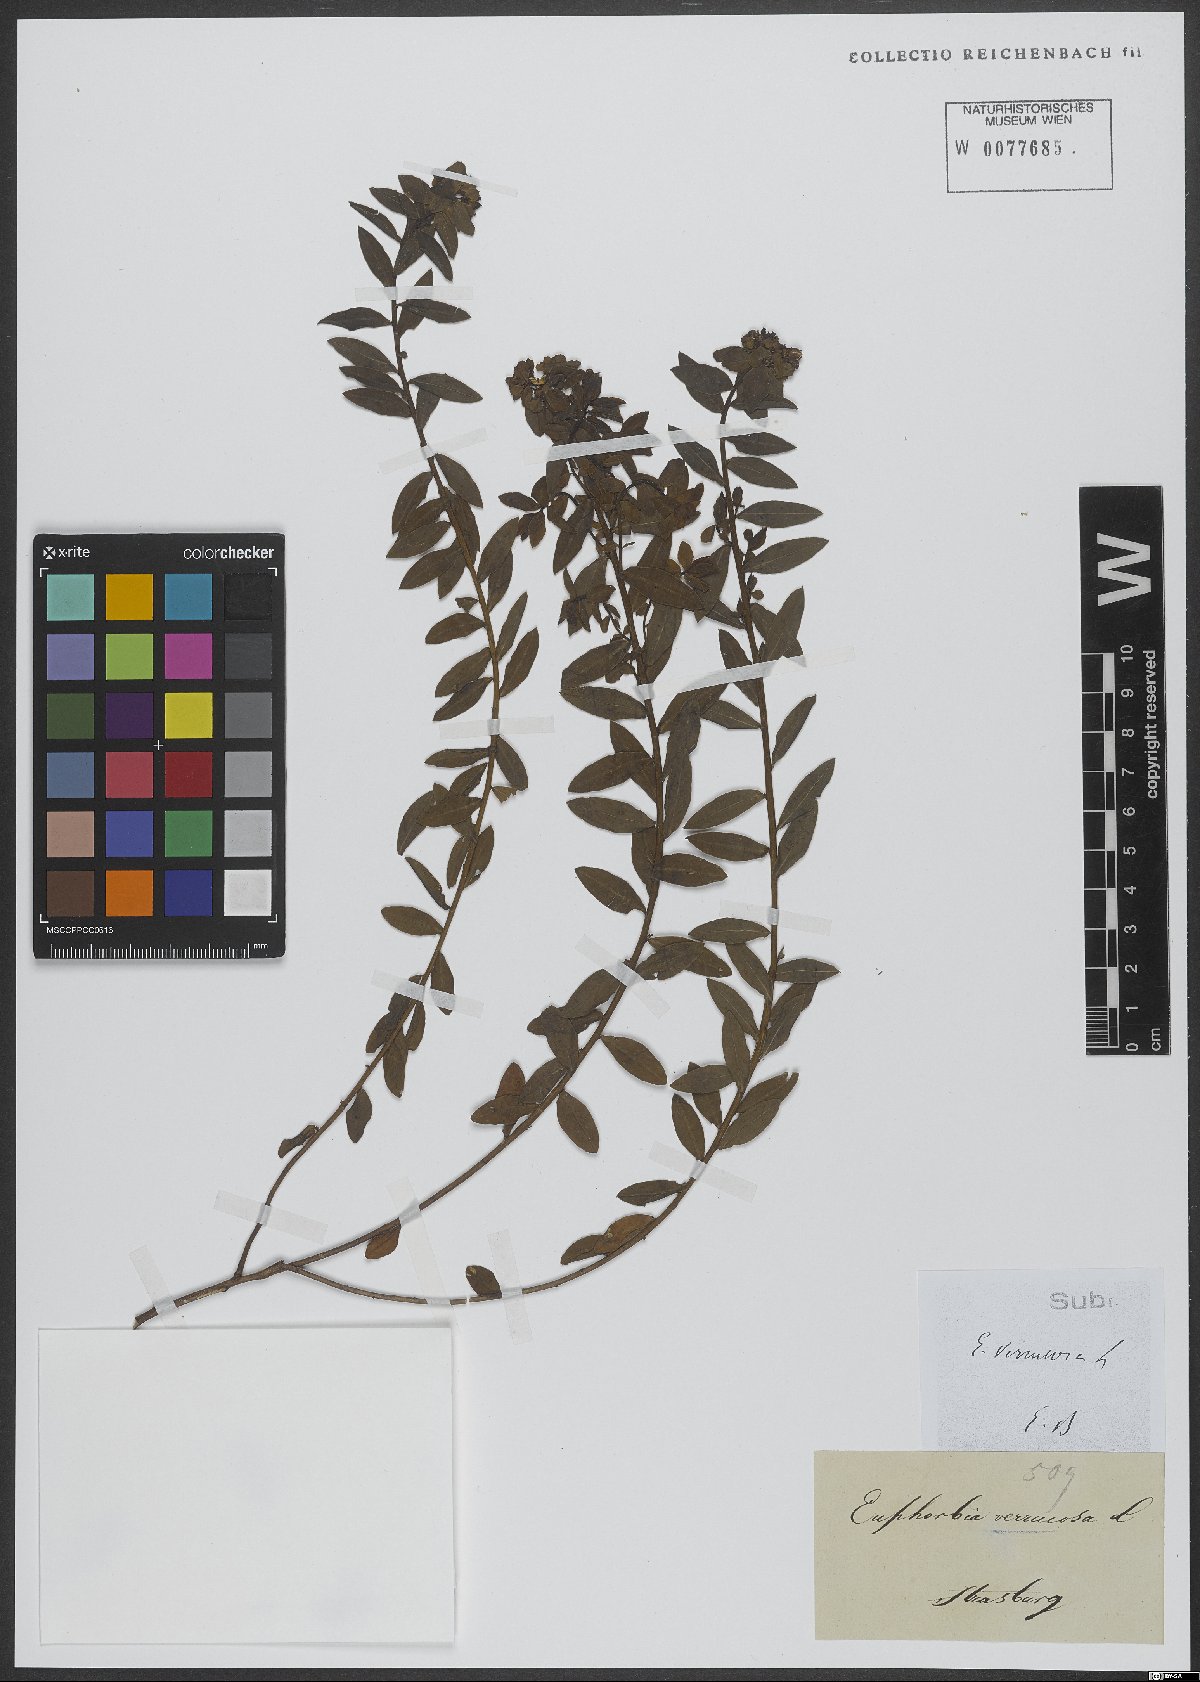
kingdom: Plantae
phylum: Tracheophyta
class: Magnoliopsida
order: Malpighiales
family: Euphorbiaceae
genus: Euphorbia
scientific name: Euphorbia verrucosa
